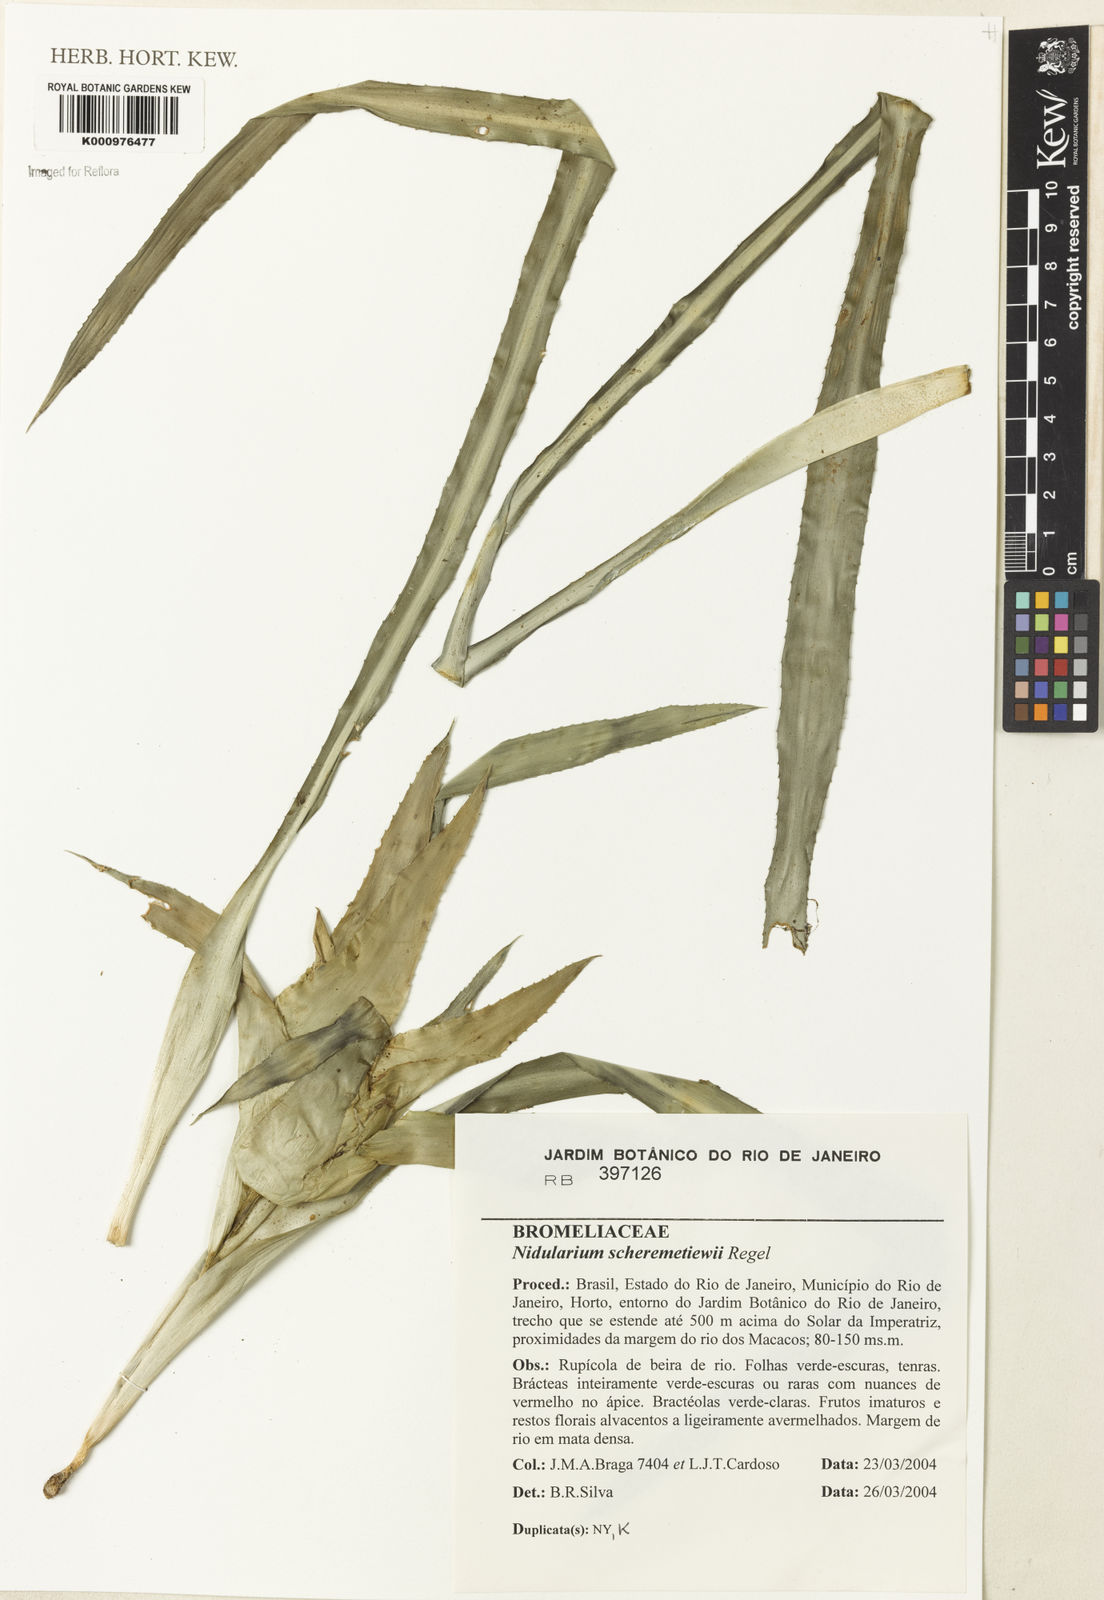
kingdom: Plantae
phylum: Tracheophyta
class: Liliopsida
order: Poales
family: Bromeliaceae
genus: Nidularium
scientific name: Nidularium scheremetiewii
